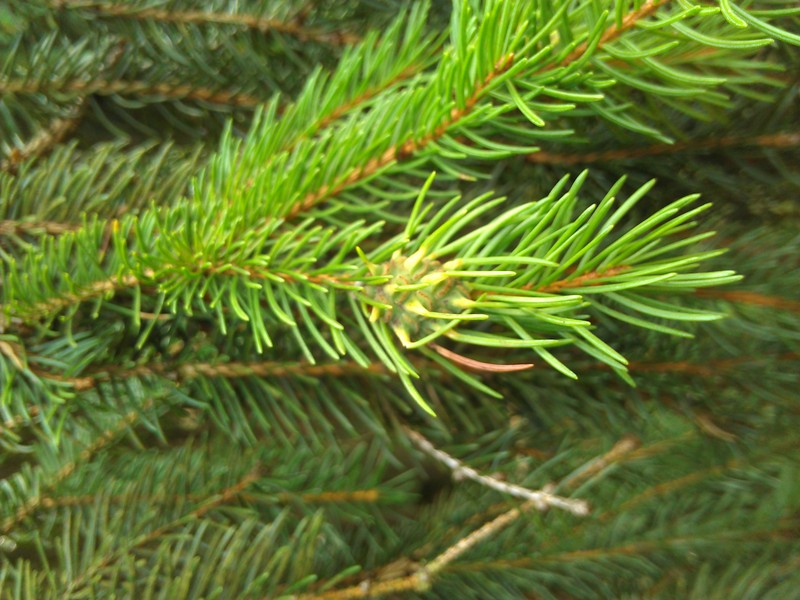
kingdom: Animalia
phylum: Arthropoda
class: Insecta
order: Hemiptera
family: Adelgidae
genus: Adelges
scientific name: Adelges
